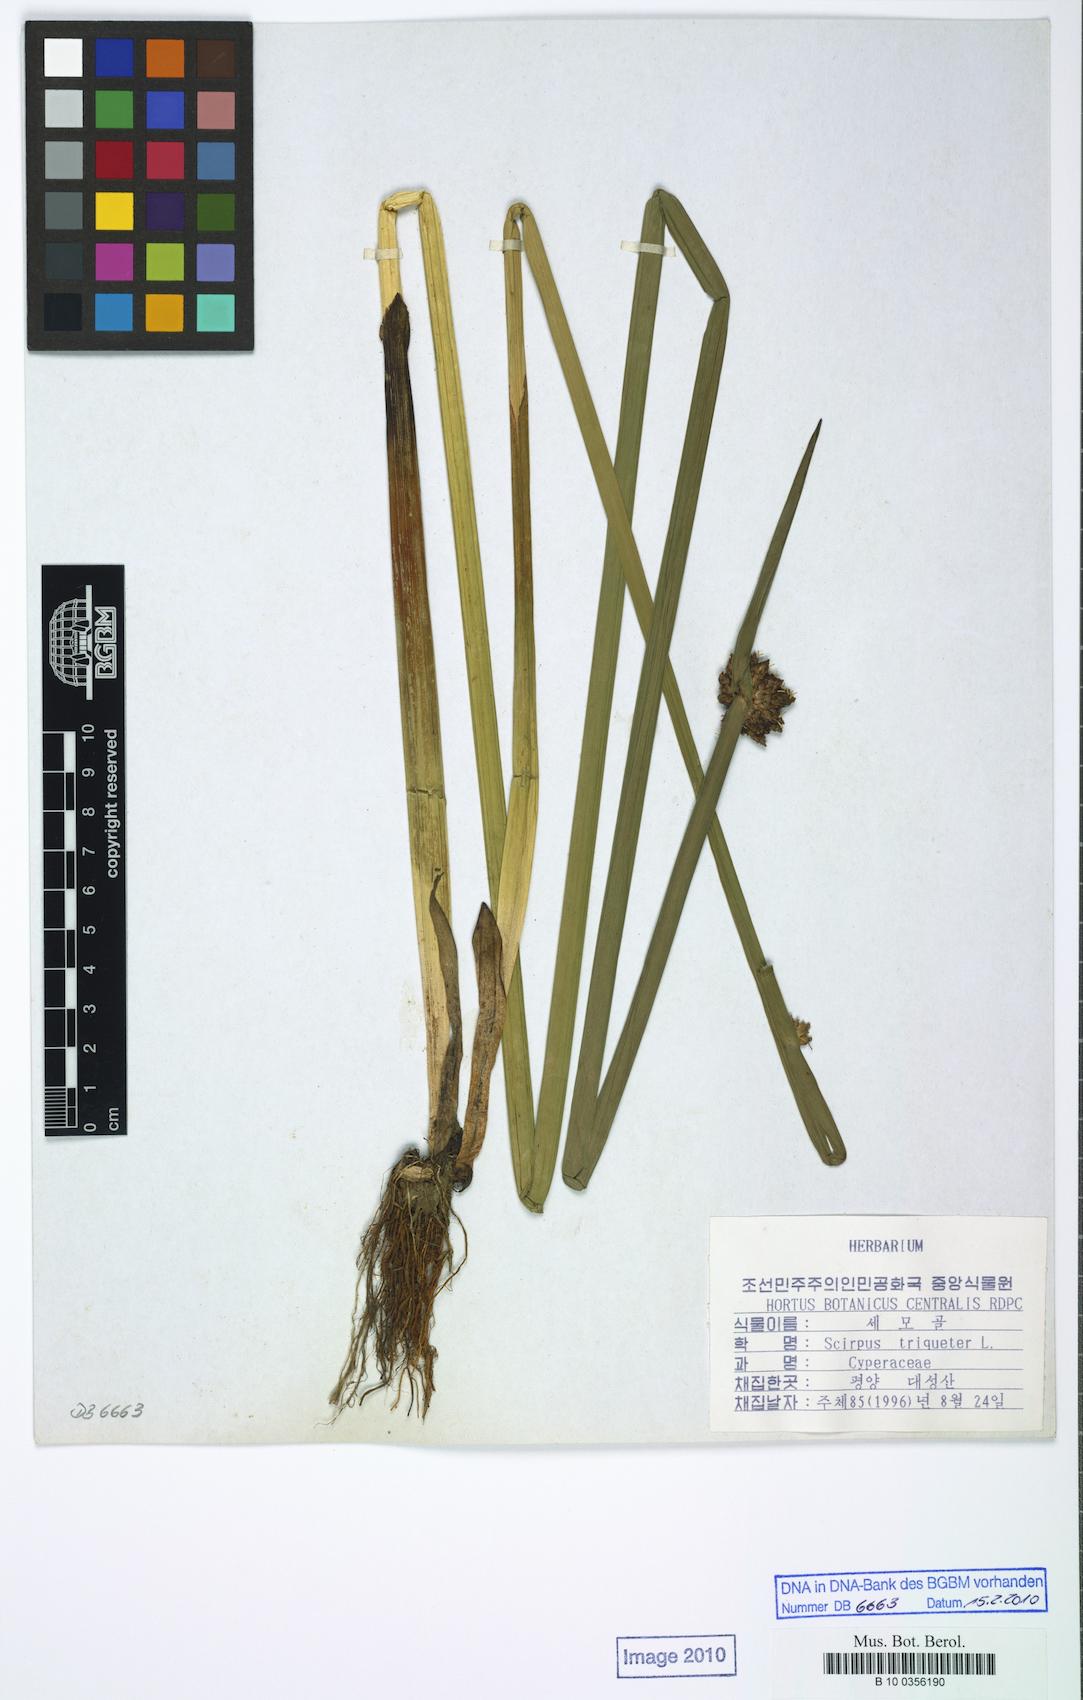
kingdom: Plantae
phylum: Tracheophyta
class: Liliopsida
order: Poales
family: Cyperaceae
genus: Schoenoplectus
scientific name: Schoenoplectus triqueter
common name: Triangular club-rush
